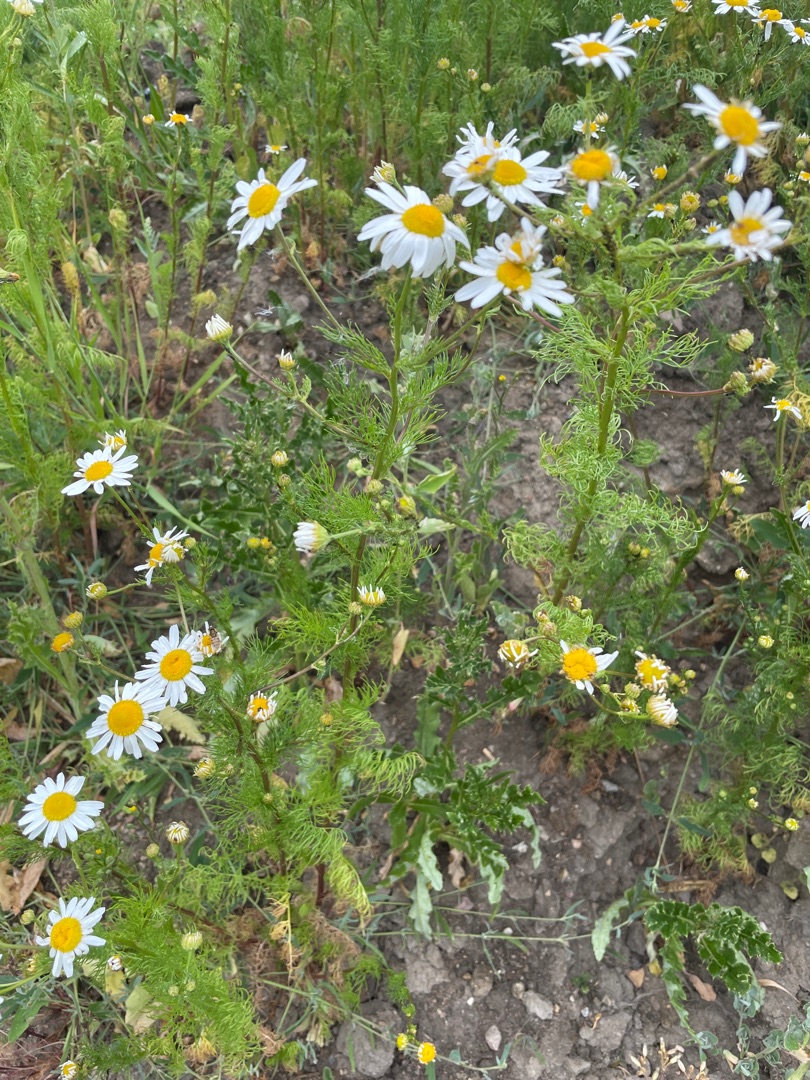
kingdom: Plantae
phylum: Tracheophyta
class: Magnoliopsida
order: Asterales
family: Asteraceae
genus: Tripleurospermum
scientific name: Tripleurospermum inodorum
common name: Lugtløs kamille
